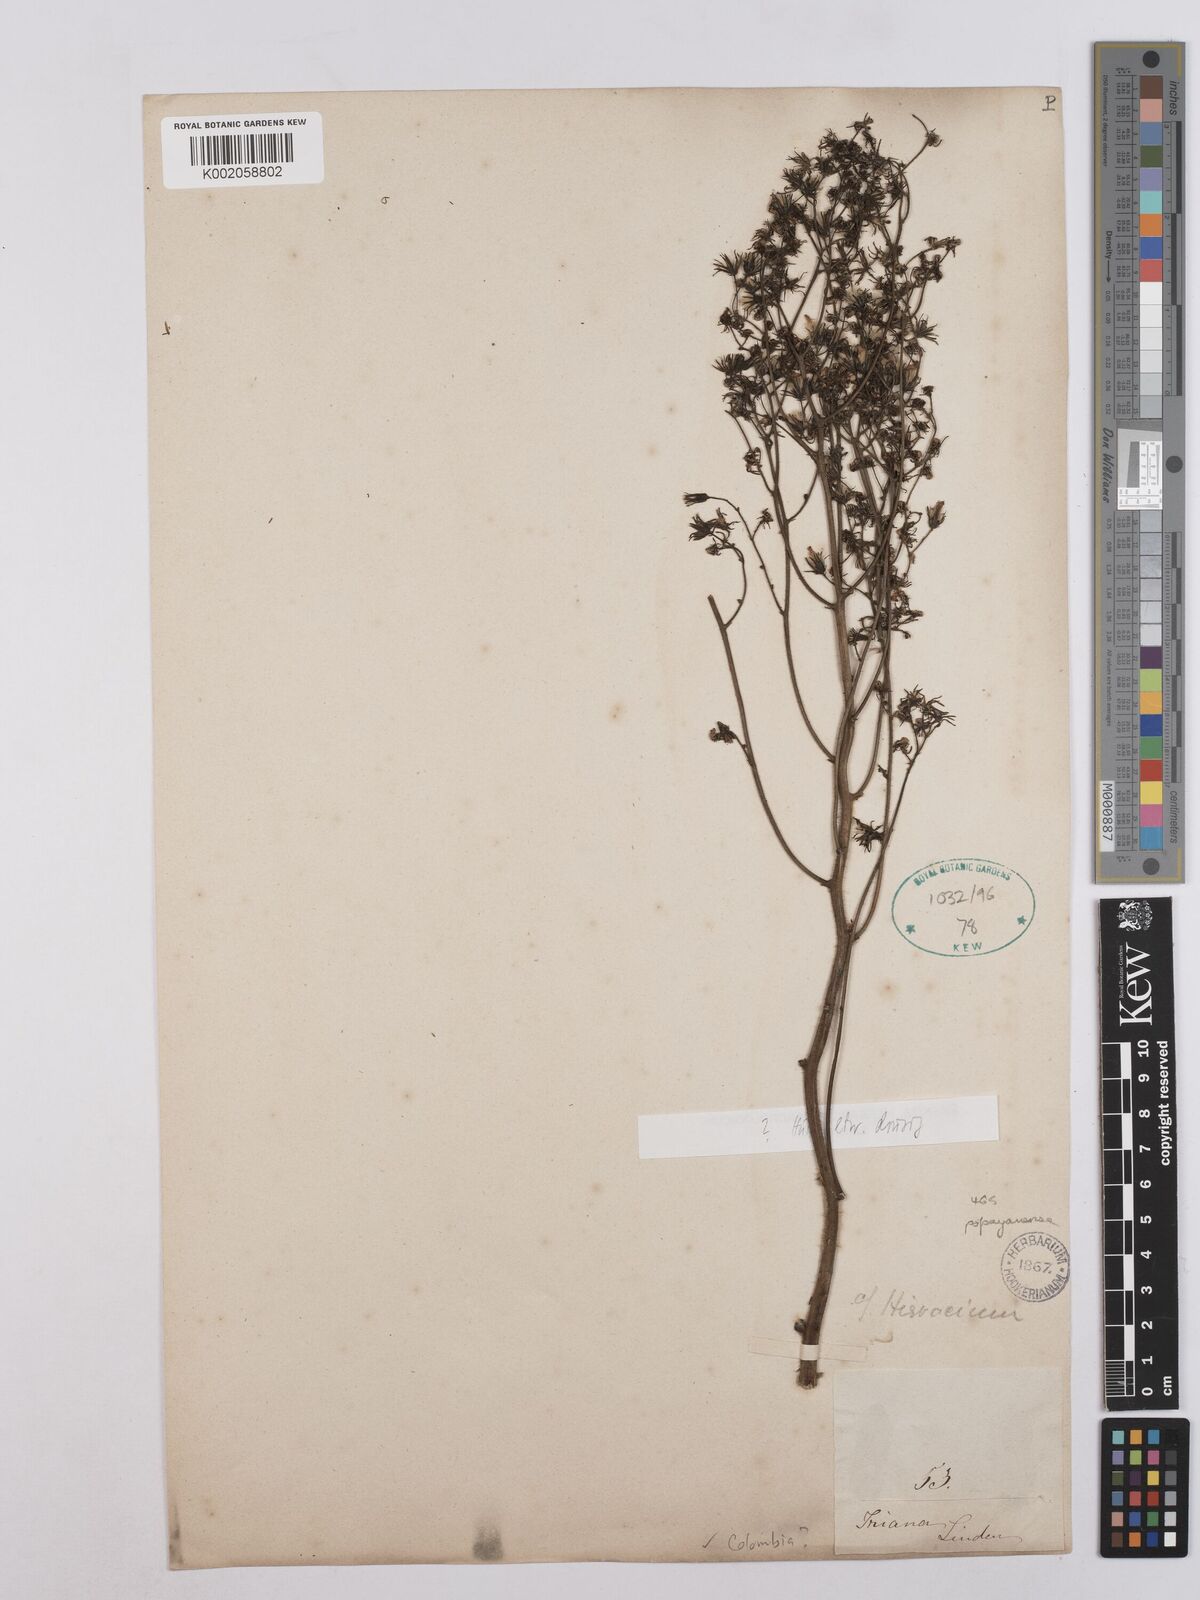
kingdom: Plantae
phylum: Tracheophyta
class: Magnoliopsida
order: Asterales
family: Asteraceae
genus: Hieracium
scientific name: Hieracium popayanense
